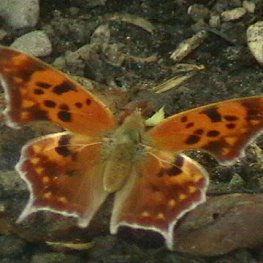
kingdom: Animalia
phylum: Arthropoda
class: Insecta
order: Lepidoptera
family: Nymphalidae
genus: Polygonia
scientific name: Polygonia interrogationis
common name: Question Mark
